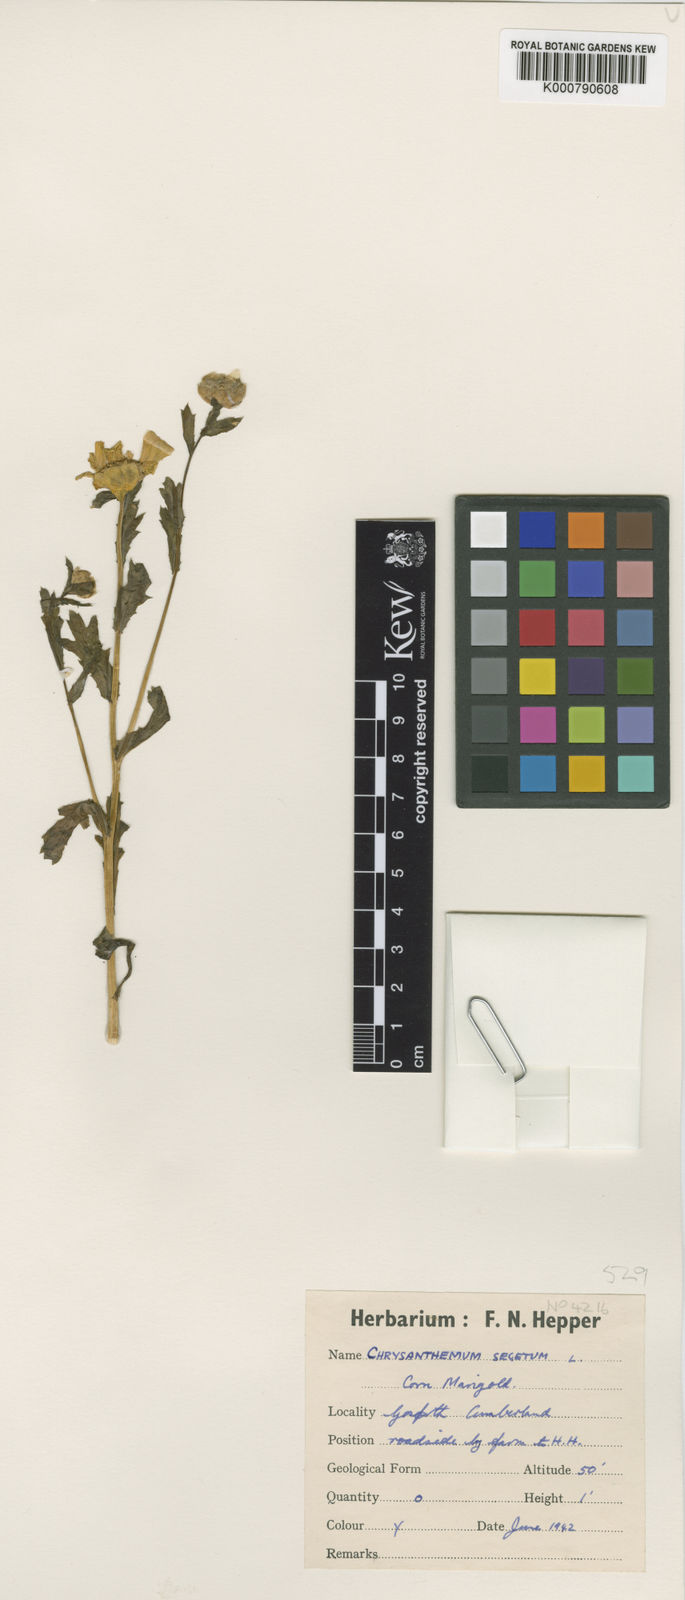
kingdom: Plantae
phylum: Tracheophyta
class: Magnoliopsida
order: Asterales
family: Asteraceae
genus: Glebionis
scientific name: Glebionis
